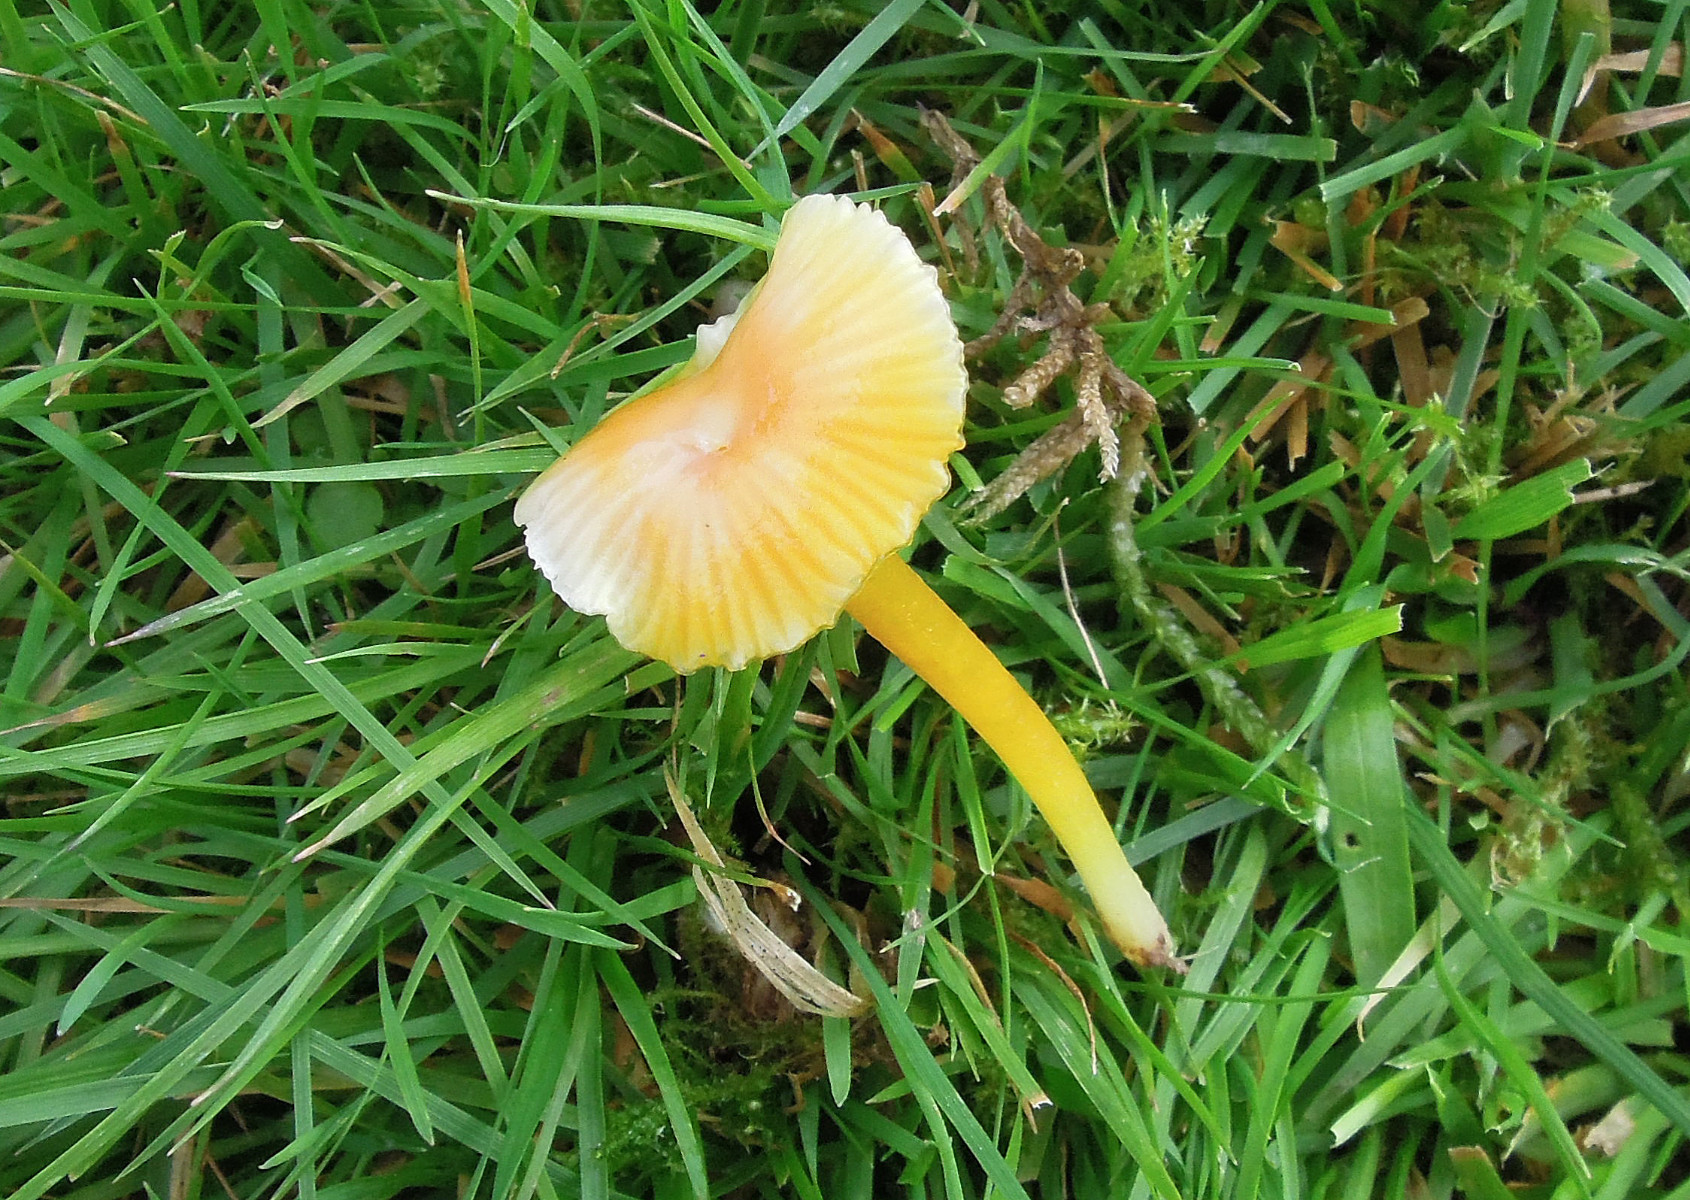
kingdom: Fungi
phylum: Basidiomycota
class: Agaricomycetes
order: Agaricales
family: Hygrophoraceae
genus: Hygrocybe
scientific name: Hygrocybe glutinipes
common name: slimstokket vokshat
